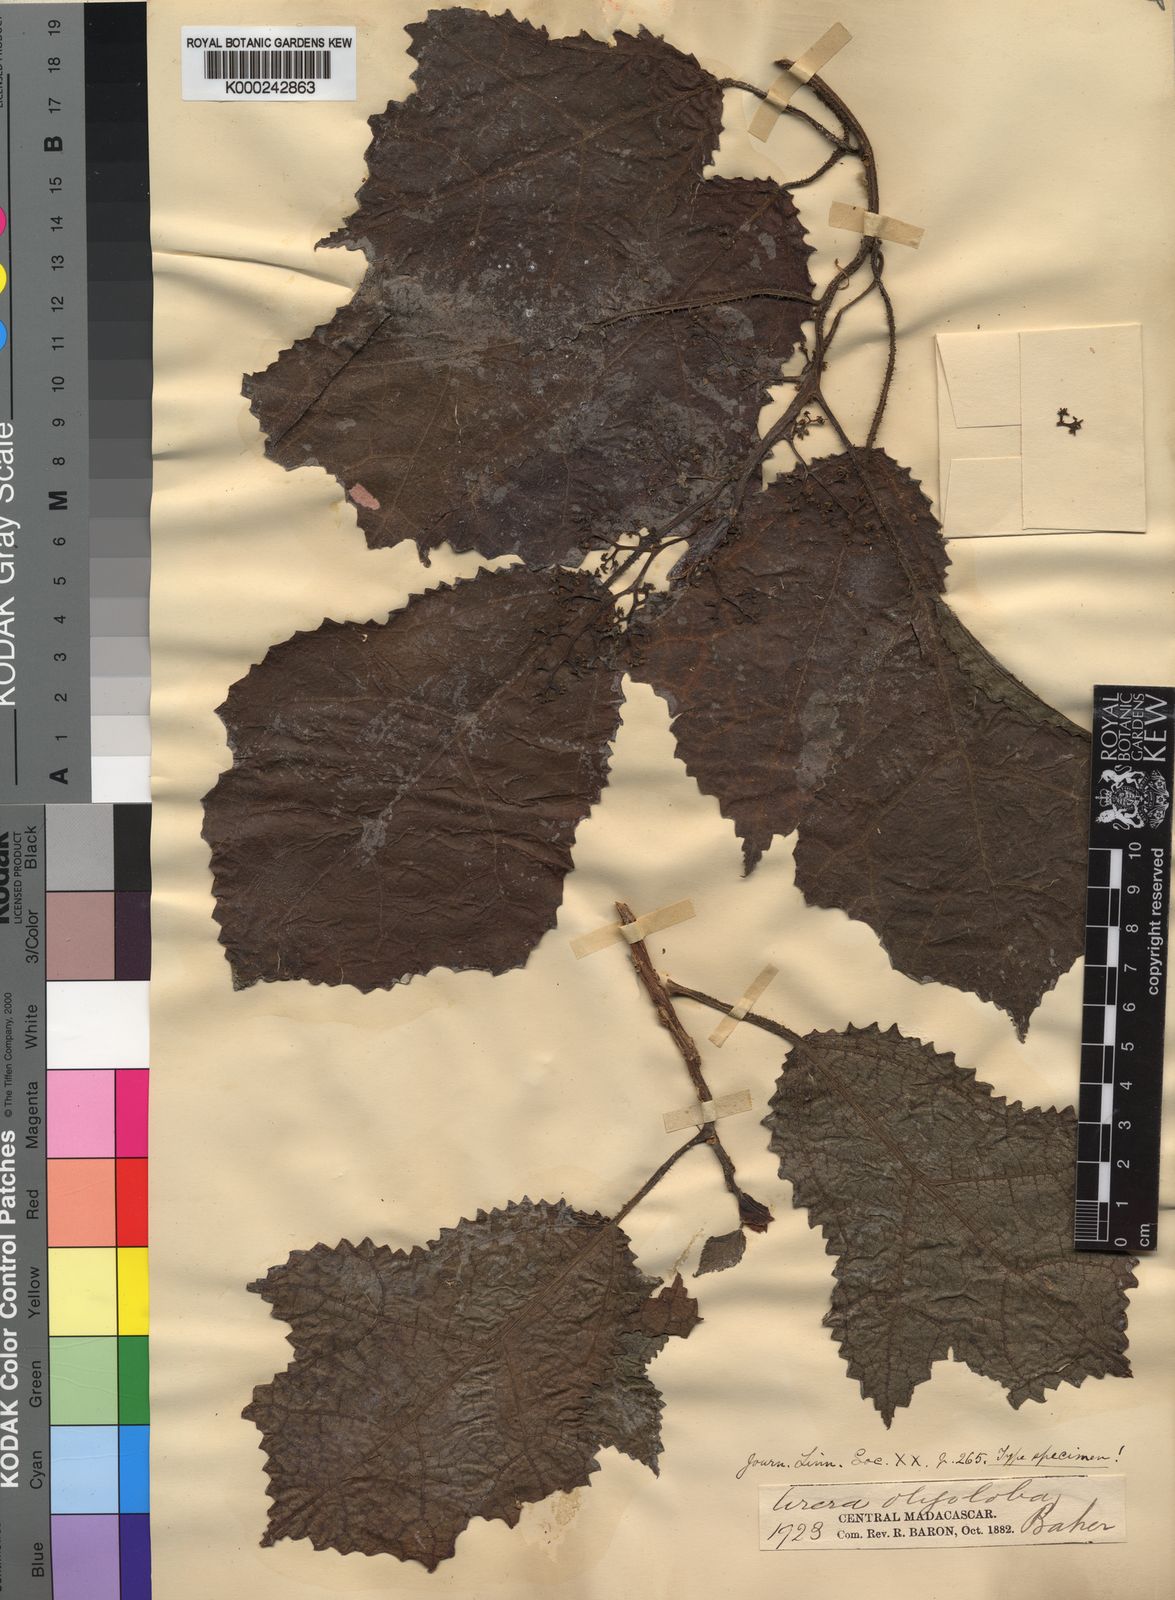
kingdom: Plantae
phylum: Tracheophyta
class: Magnoliopsida
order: Rosales
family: Urticaceae
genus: Laportea
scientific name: Laportea oligoloba
